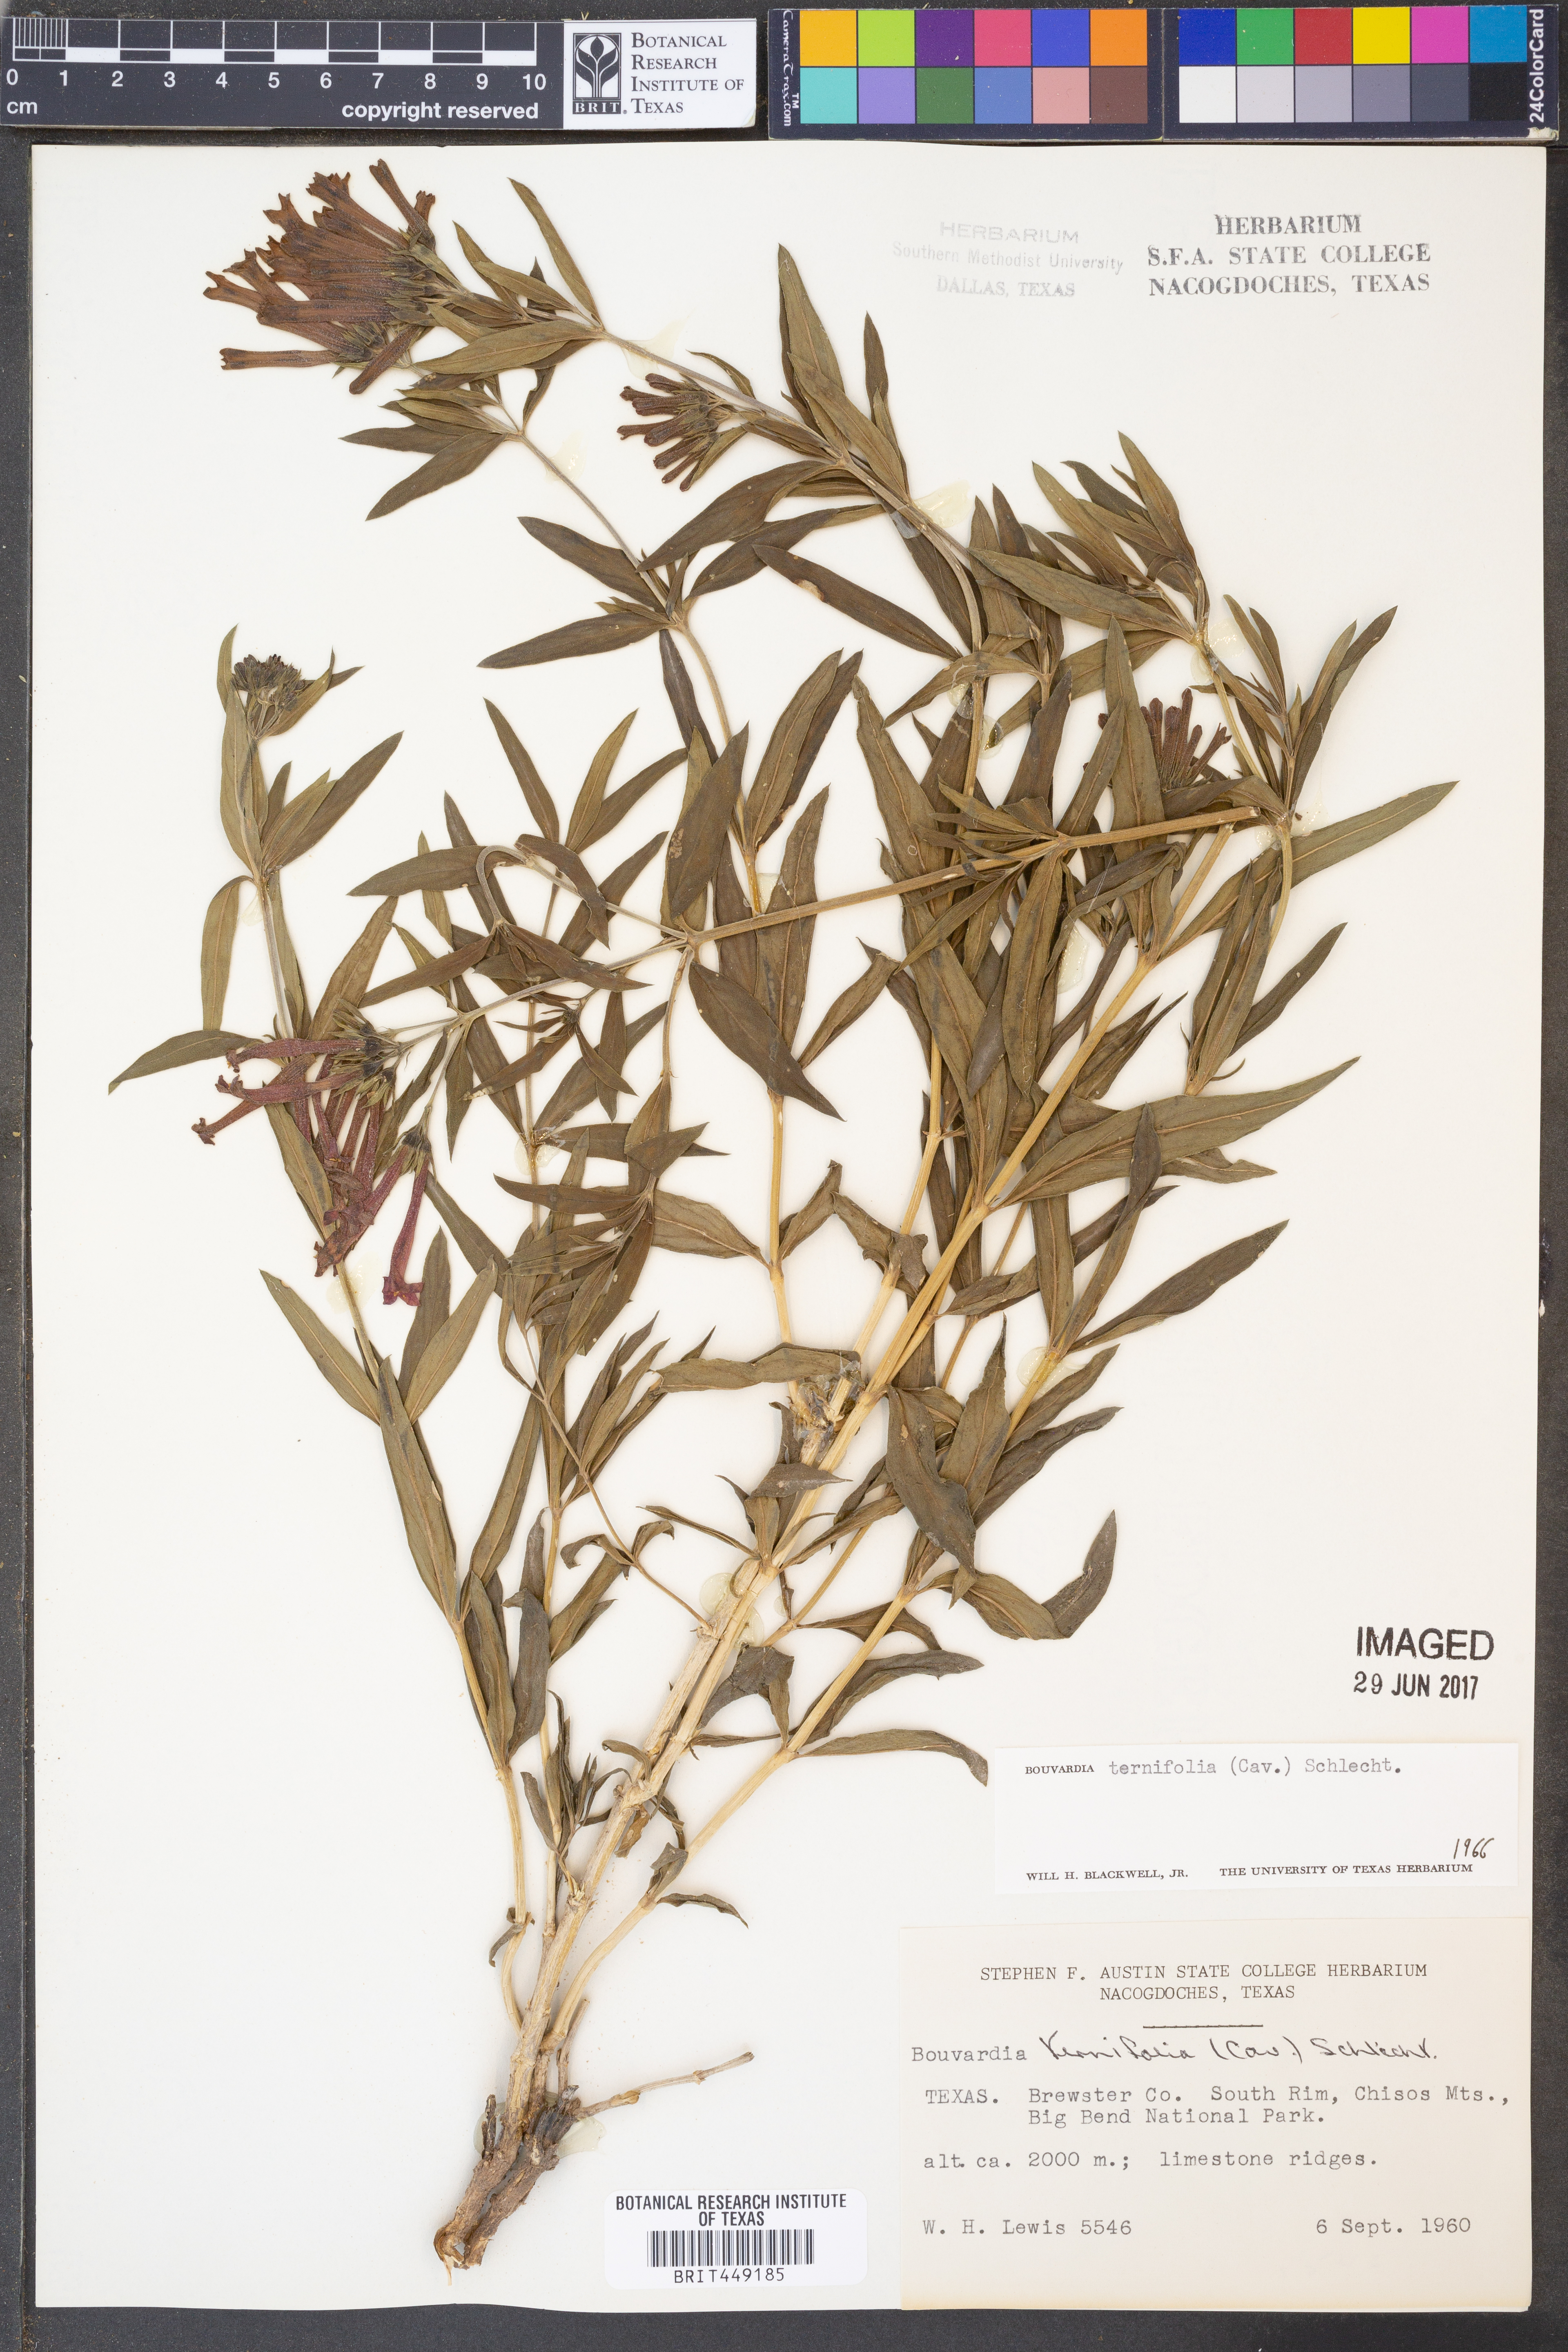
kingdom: Plantae
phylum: Tracheophyta
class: Magnoliopsida
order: Gentianales
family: Rubiaceae
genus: Bouvardia
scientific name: Bouvardia ternifolia
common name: Scarlet bouvardia
